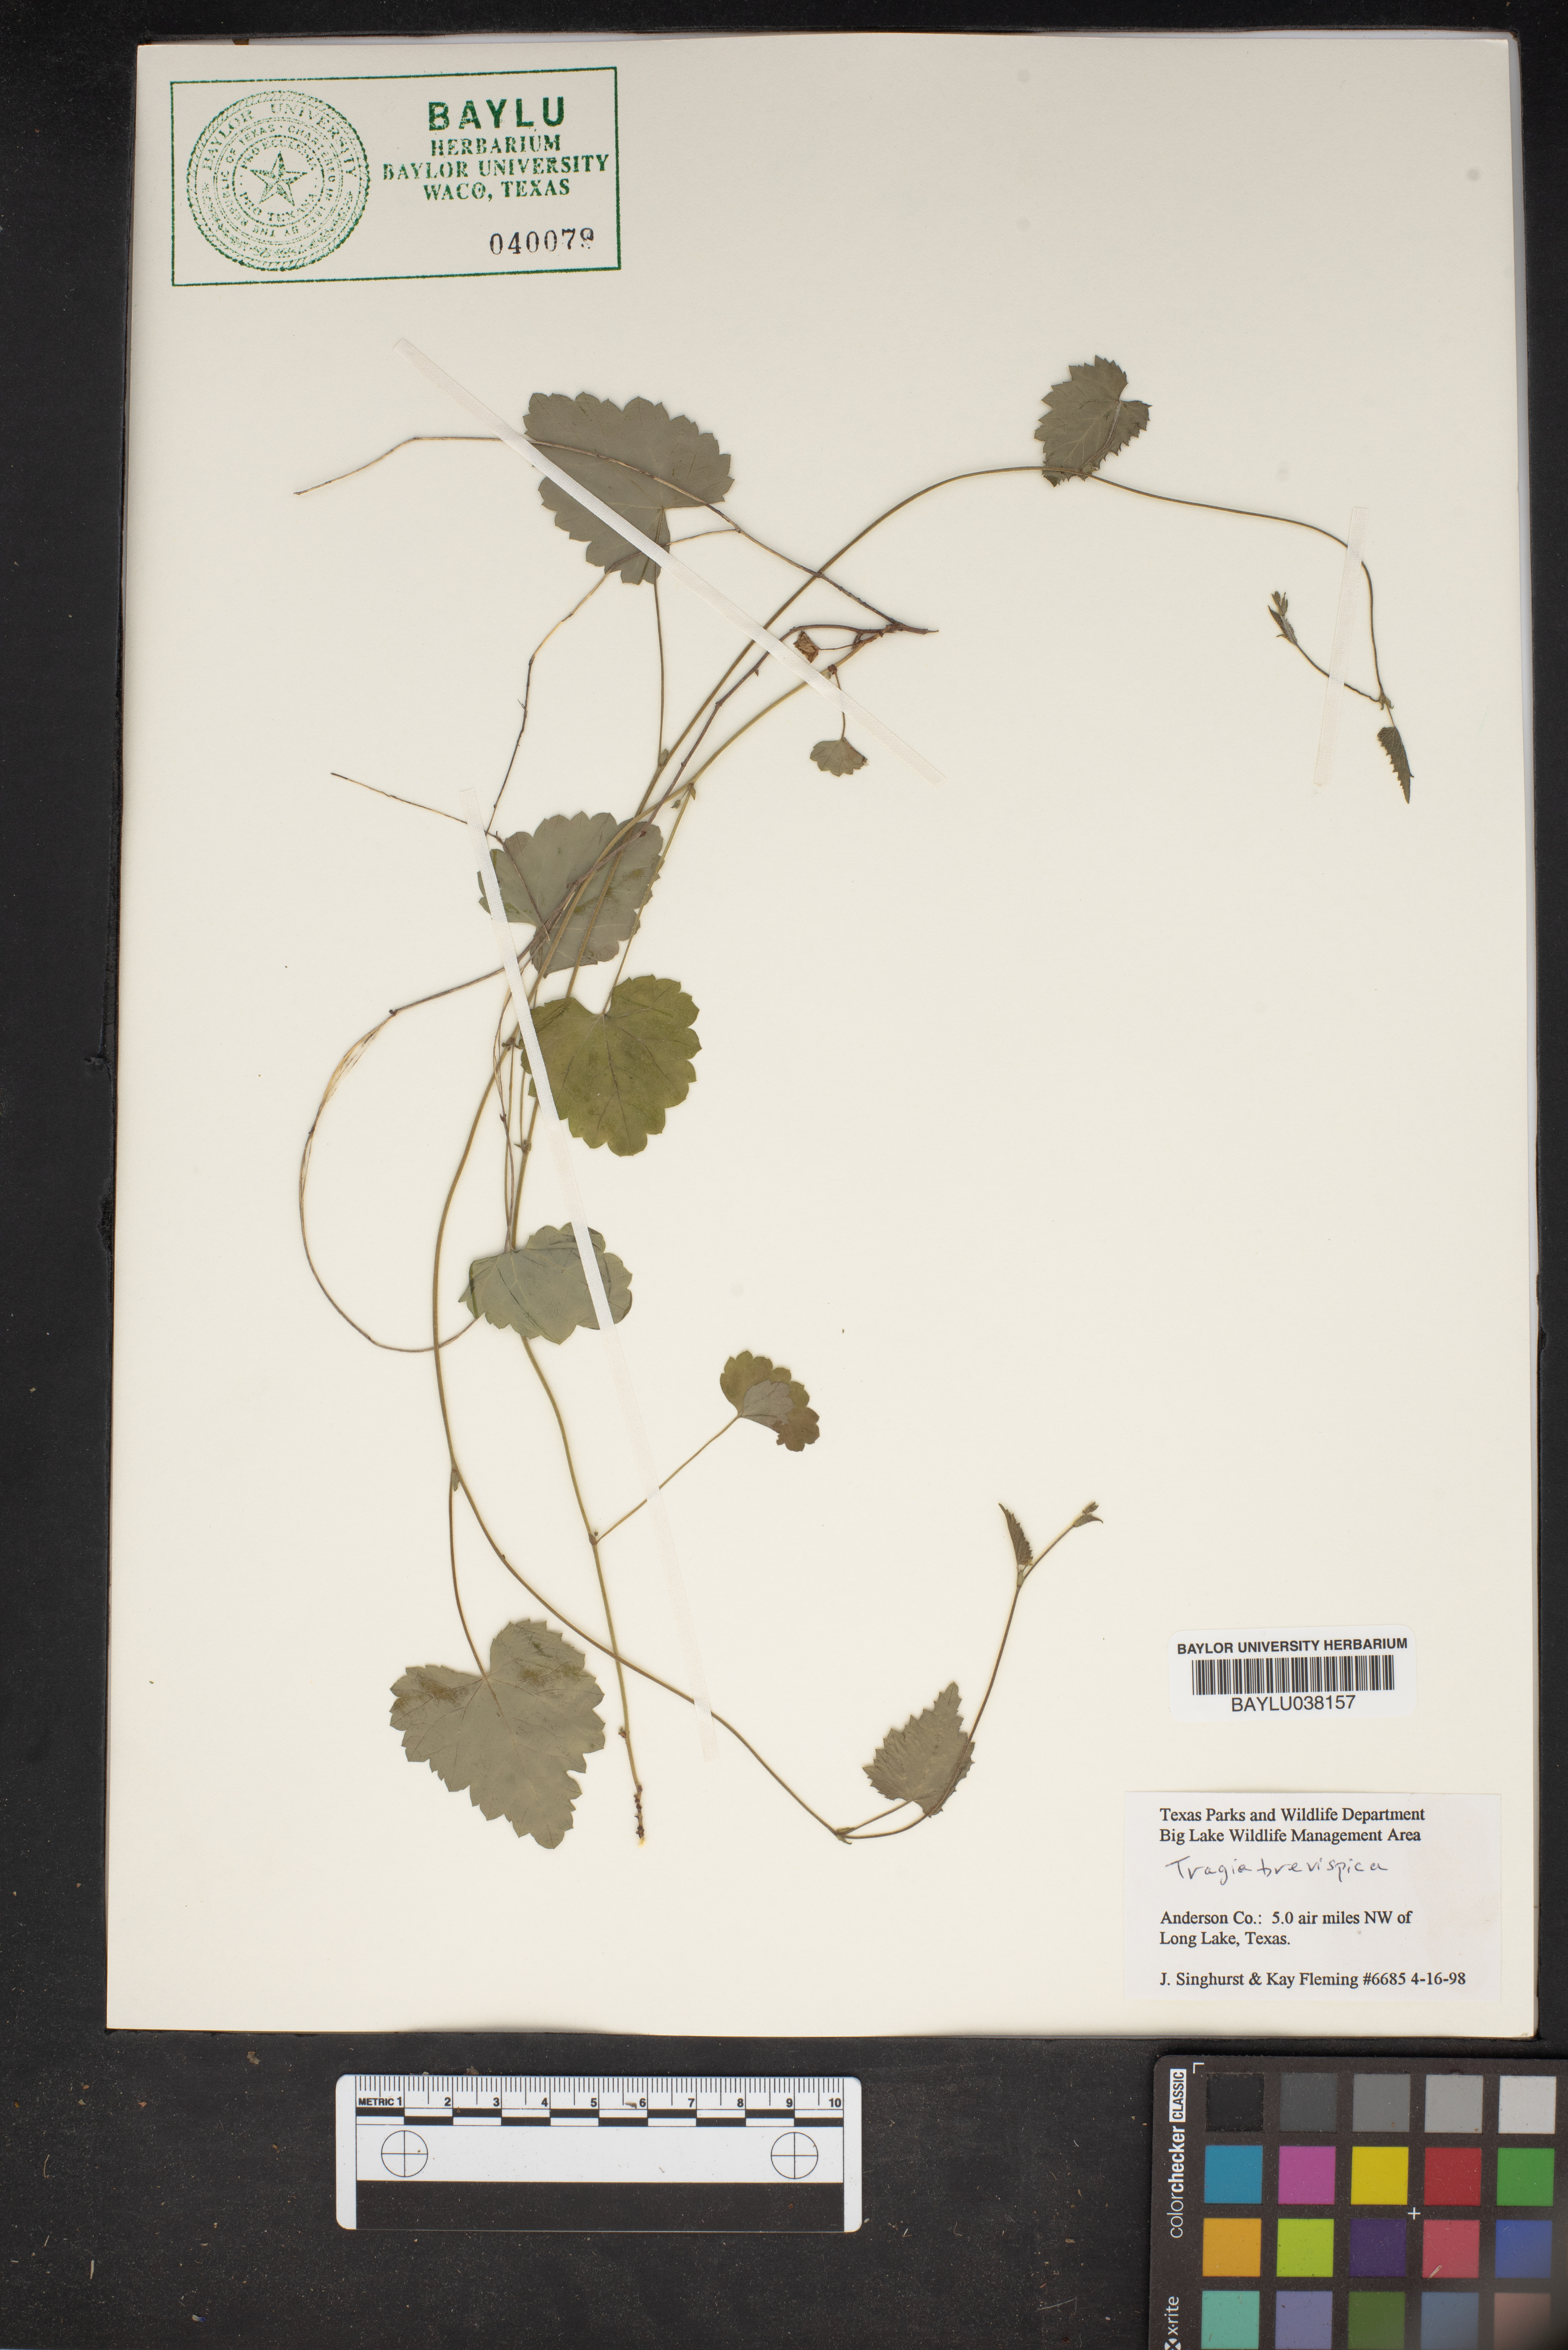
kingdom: Plantae
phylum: Tracheophyta
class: Magnoliopsida
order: Malpighiales
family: Euphorbiaceae
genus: Tragia
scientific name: Tragia brevispica
